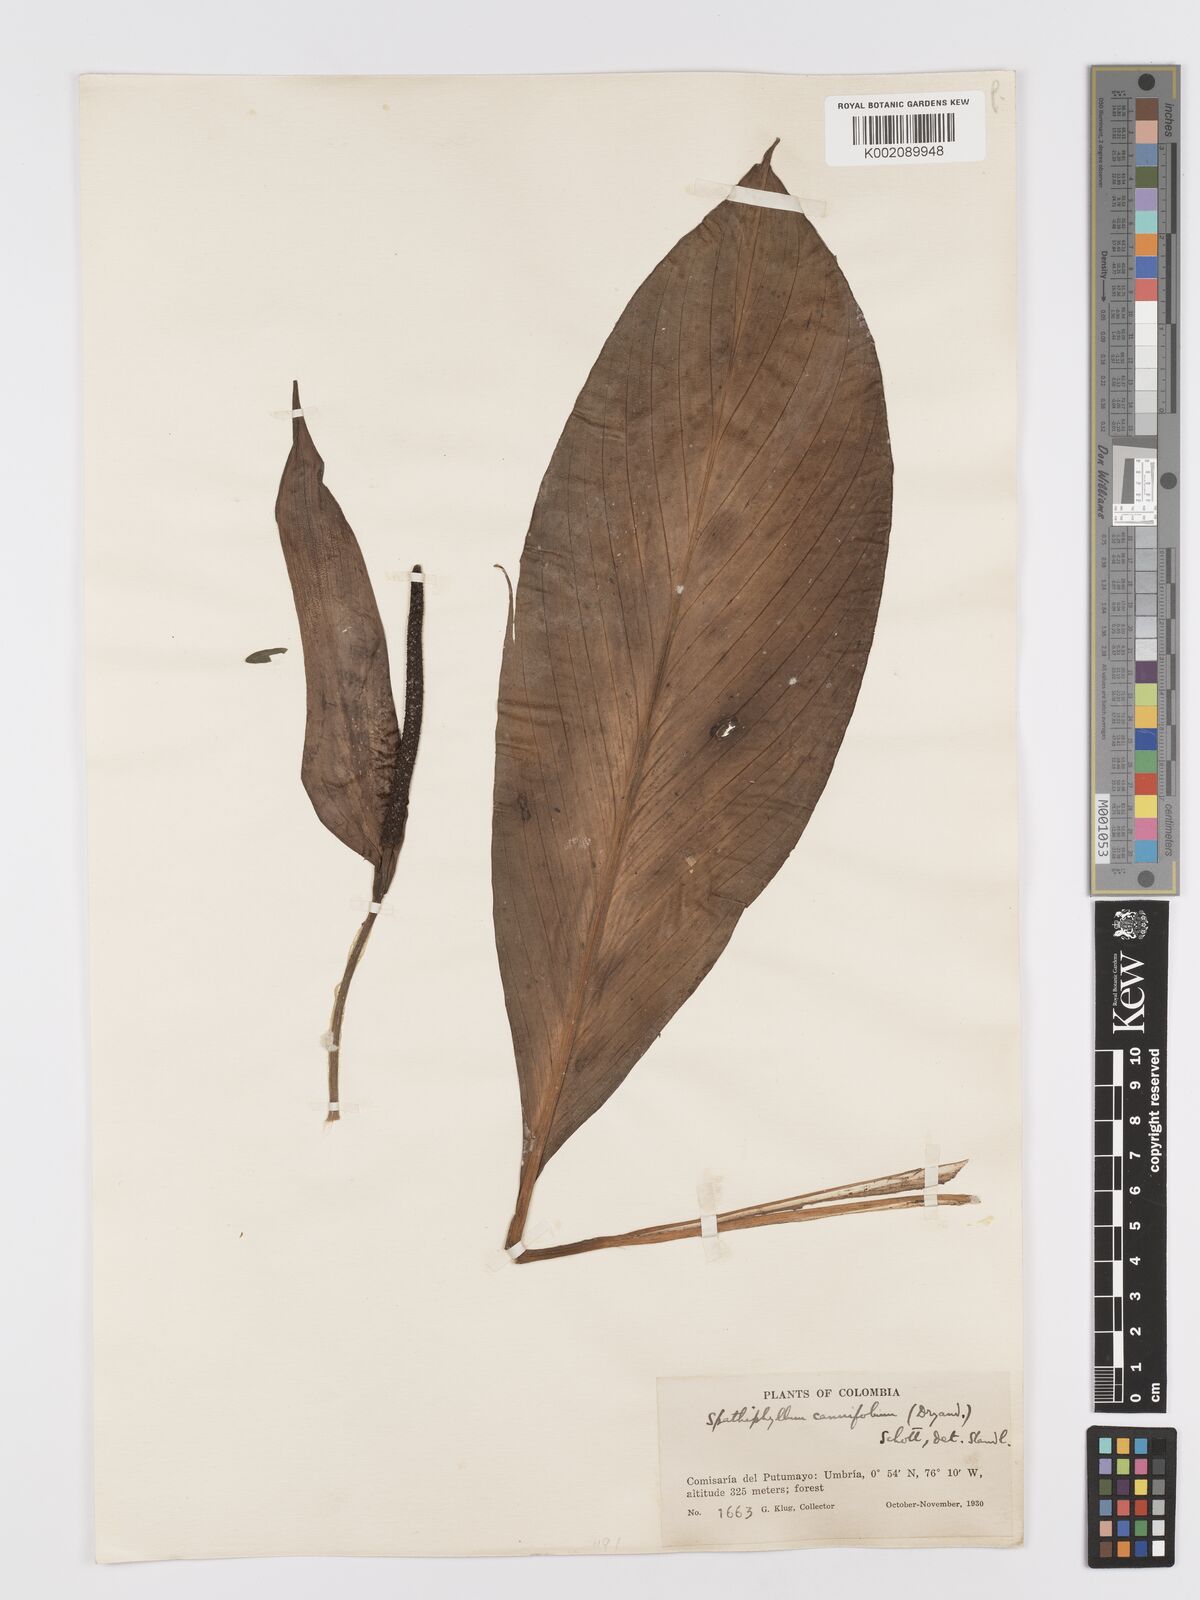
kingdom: Plantae
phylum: Tracheophyta
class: Liliopsida
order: Alismatales
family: Araceae
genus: Spathiphyllum
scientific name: Spathiphyllum cannifolium
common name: Spatheflower
